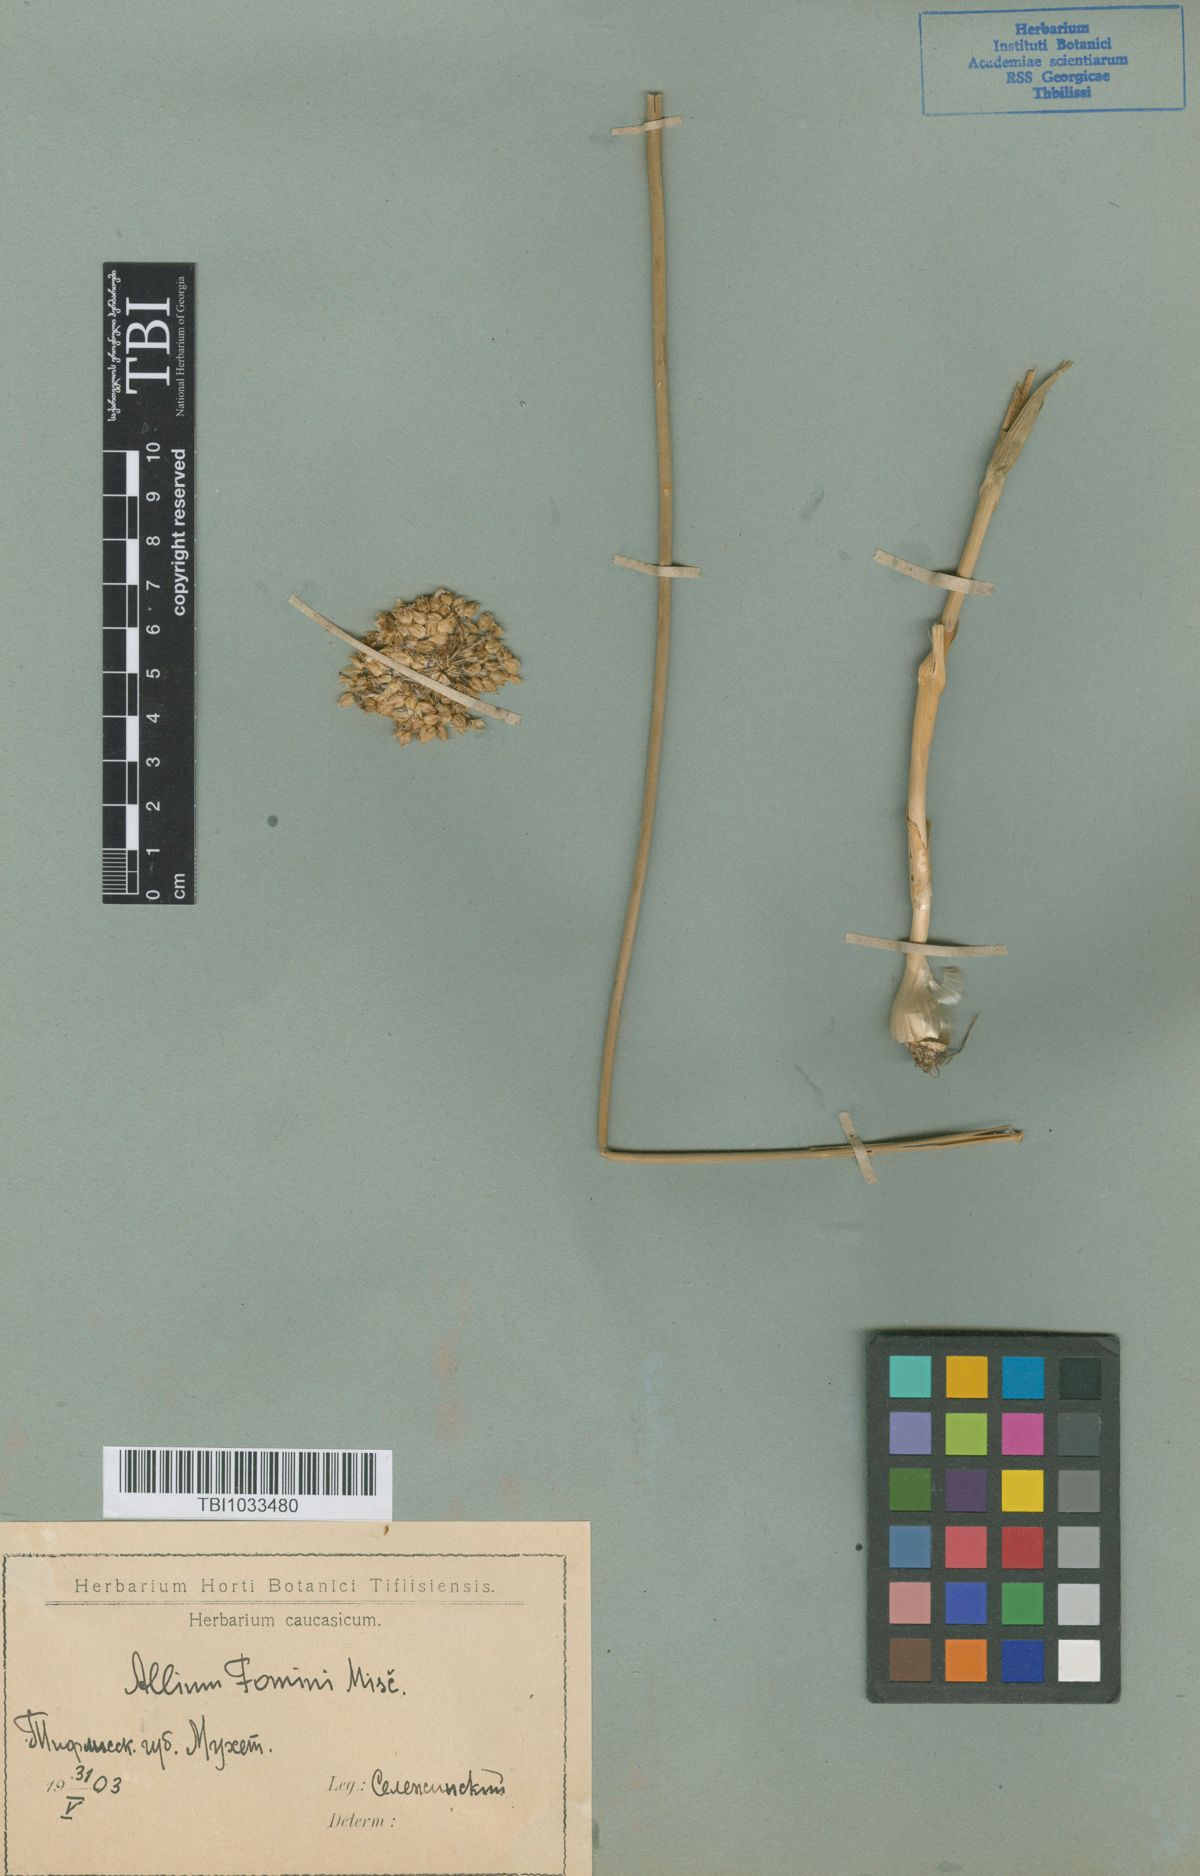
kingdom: Plantae
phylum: Tracheophyta
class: Liliopsida
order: Asparagales
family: Amaryllidaceae
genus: Allium
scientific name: Allium gramineum
